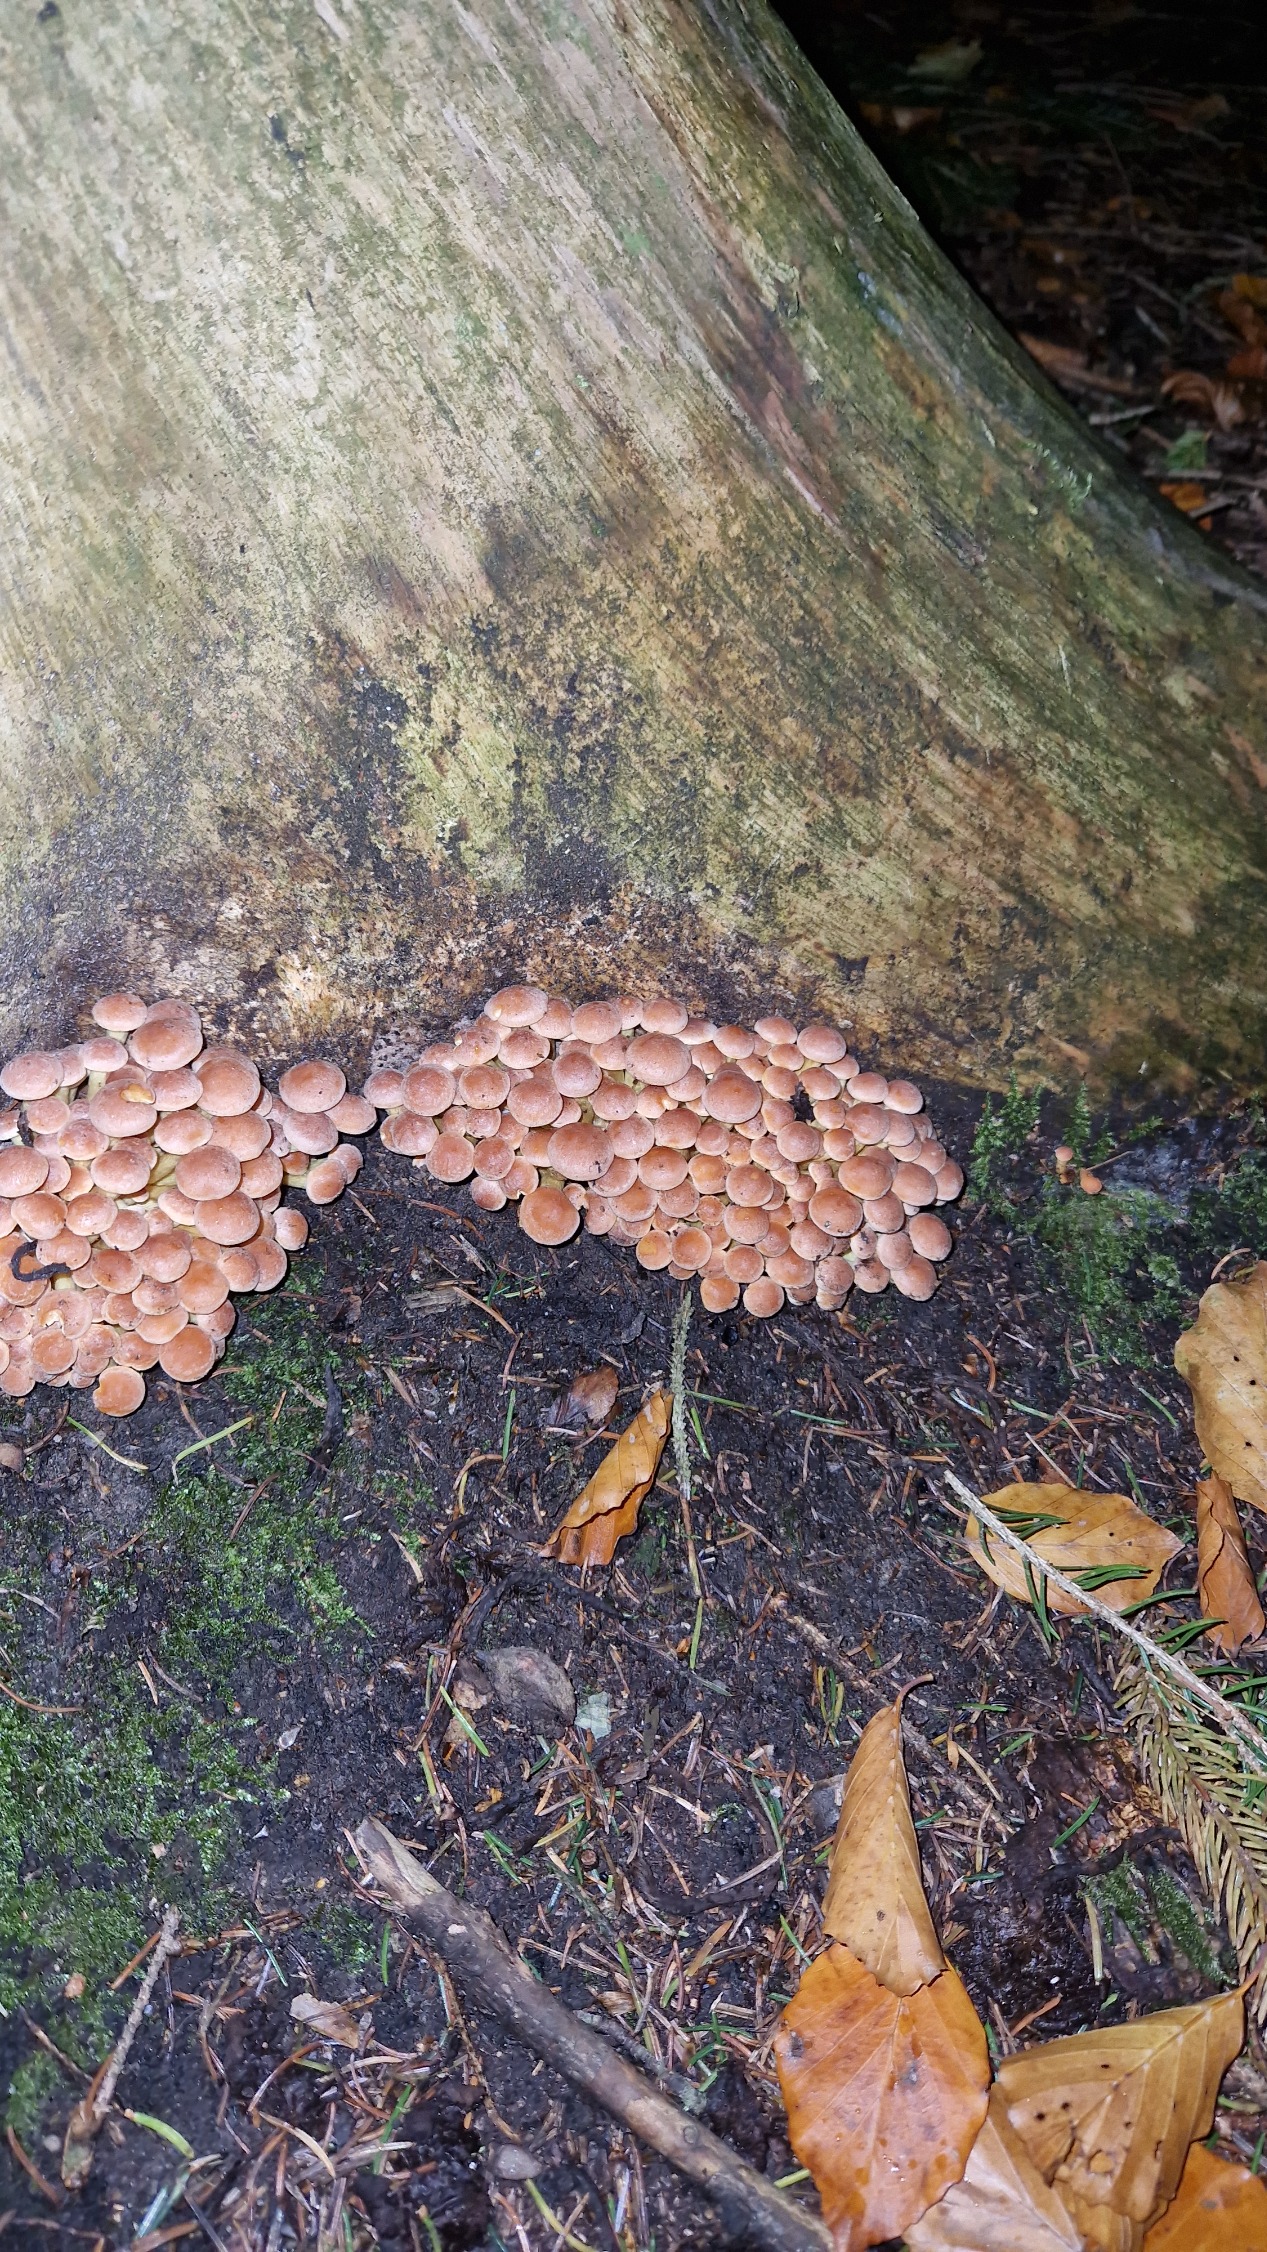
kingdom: Fungi
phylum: Basidiomycota
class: Agaricomycetes
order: Agaricales
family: Strophariaceae
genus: Hypholoma
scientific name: Hypholoma fasciculare
